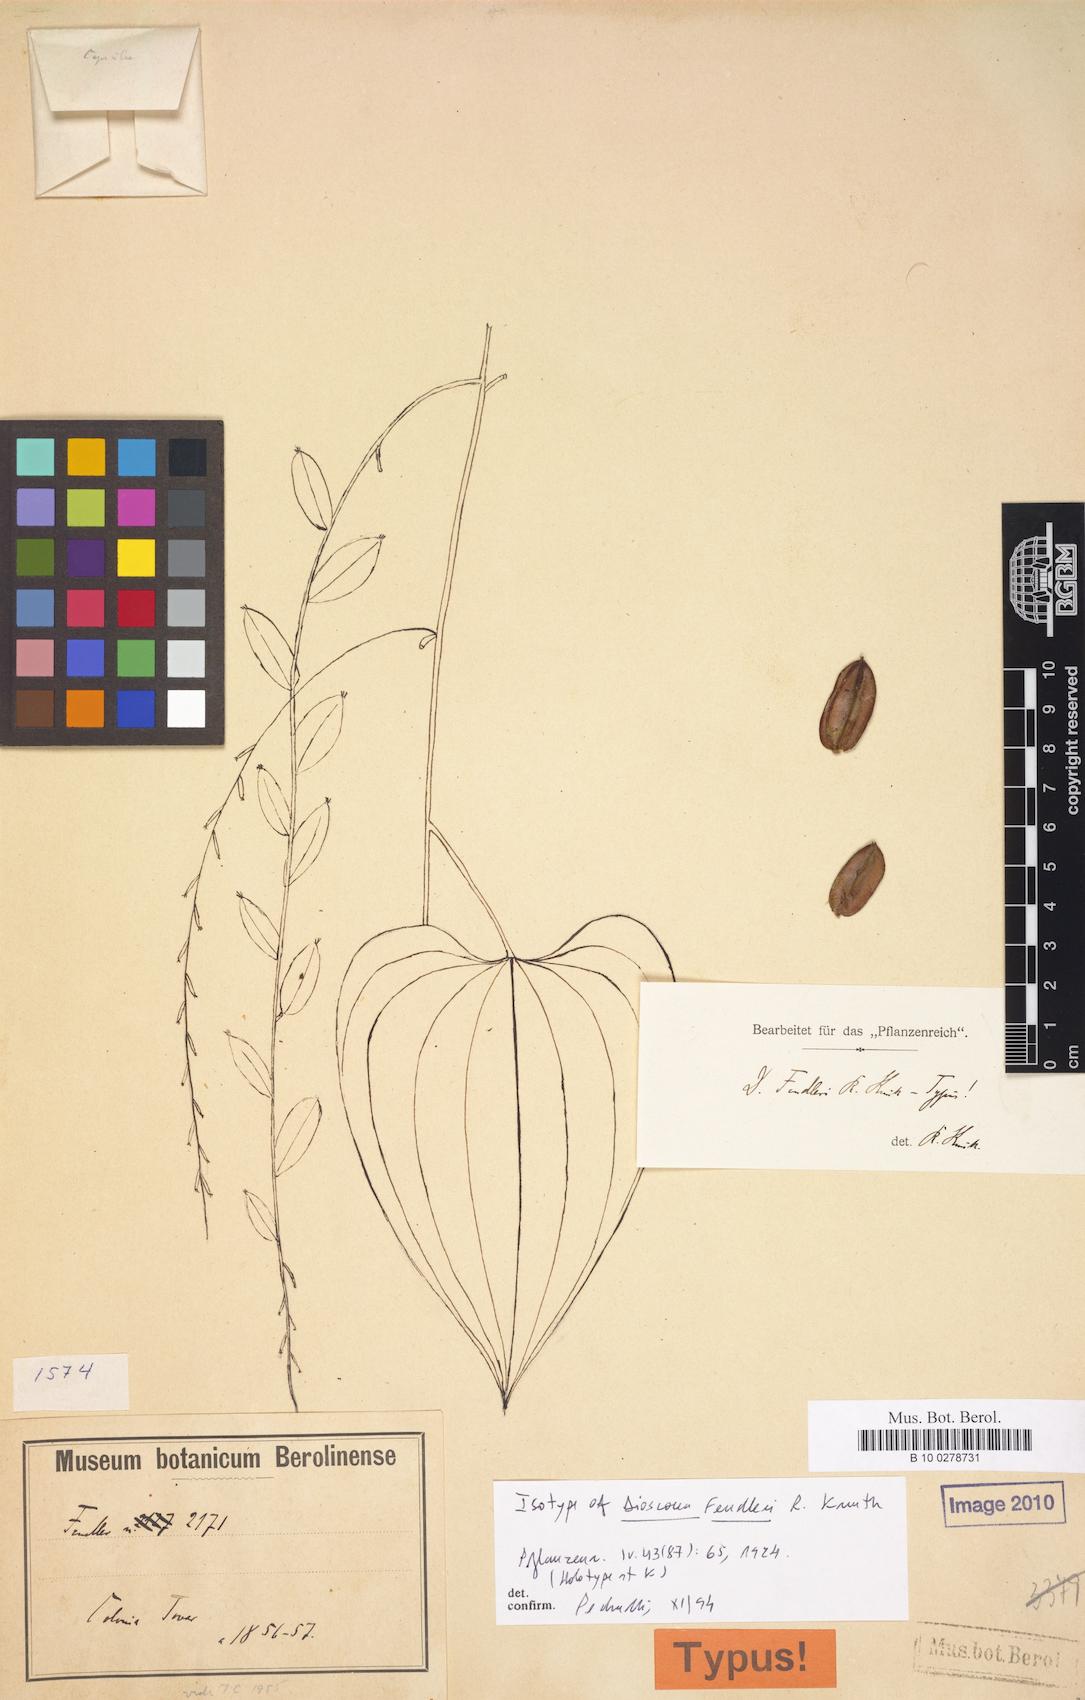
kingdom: Plantae
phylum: Tracheophyta
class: Liliopsida
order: Dioscoreales
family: Dioscoreaceae
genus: Dioscorea
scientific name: Dioscorea fendleri
